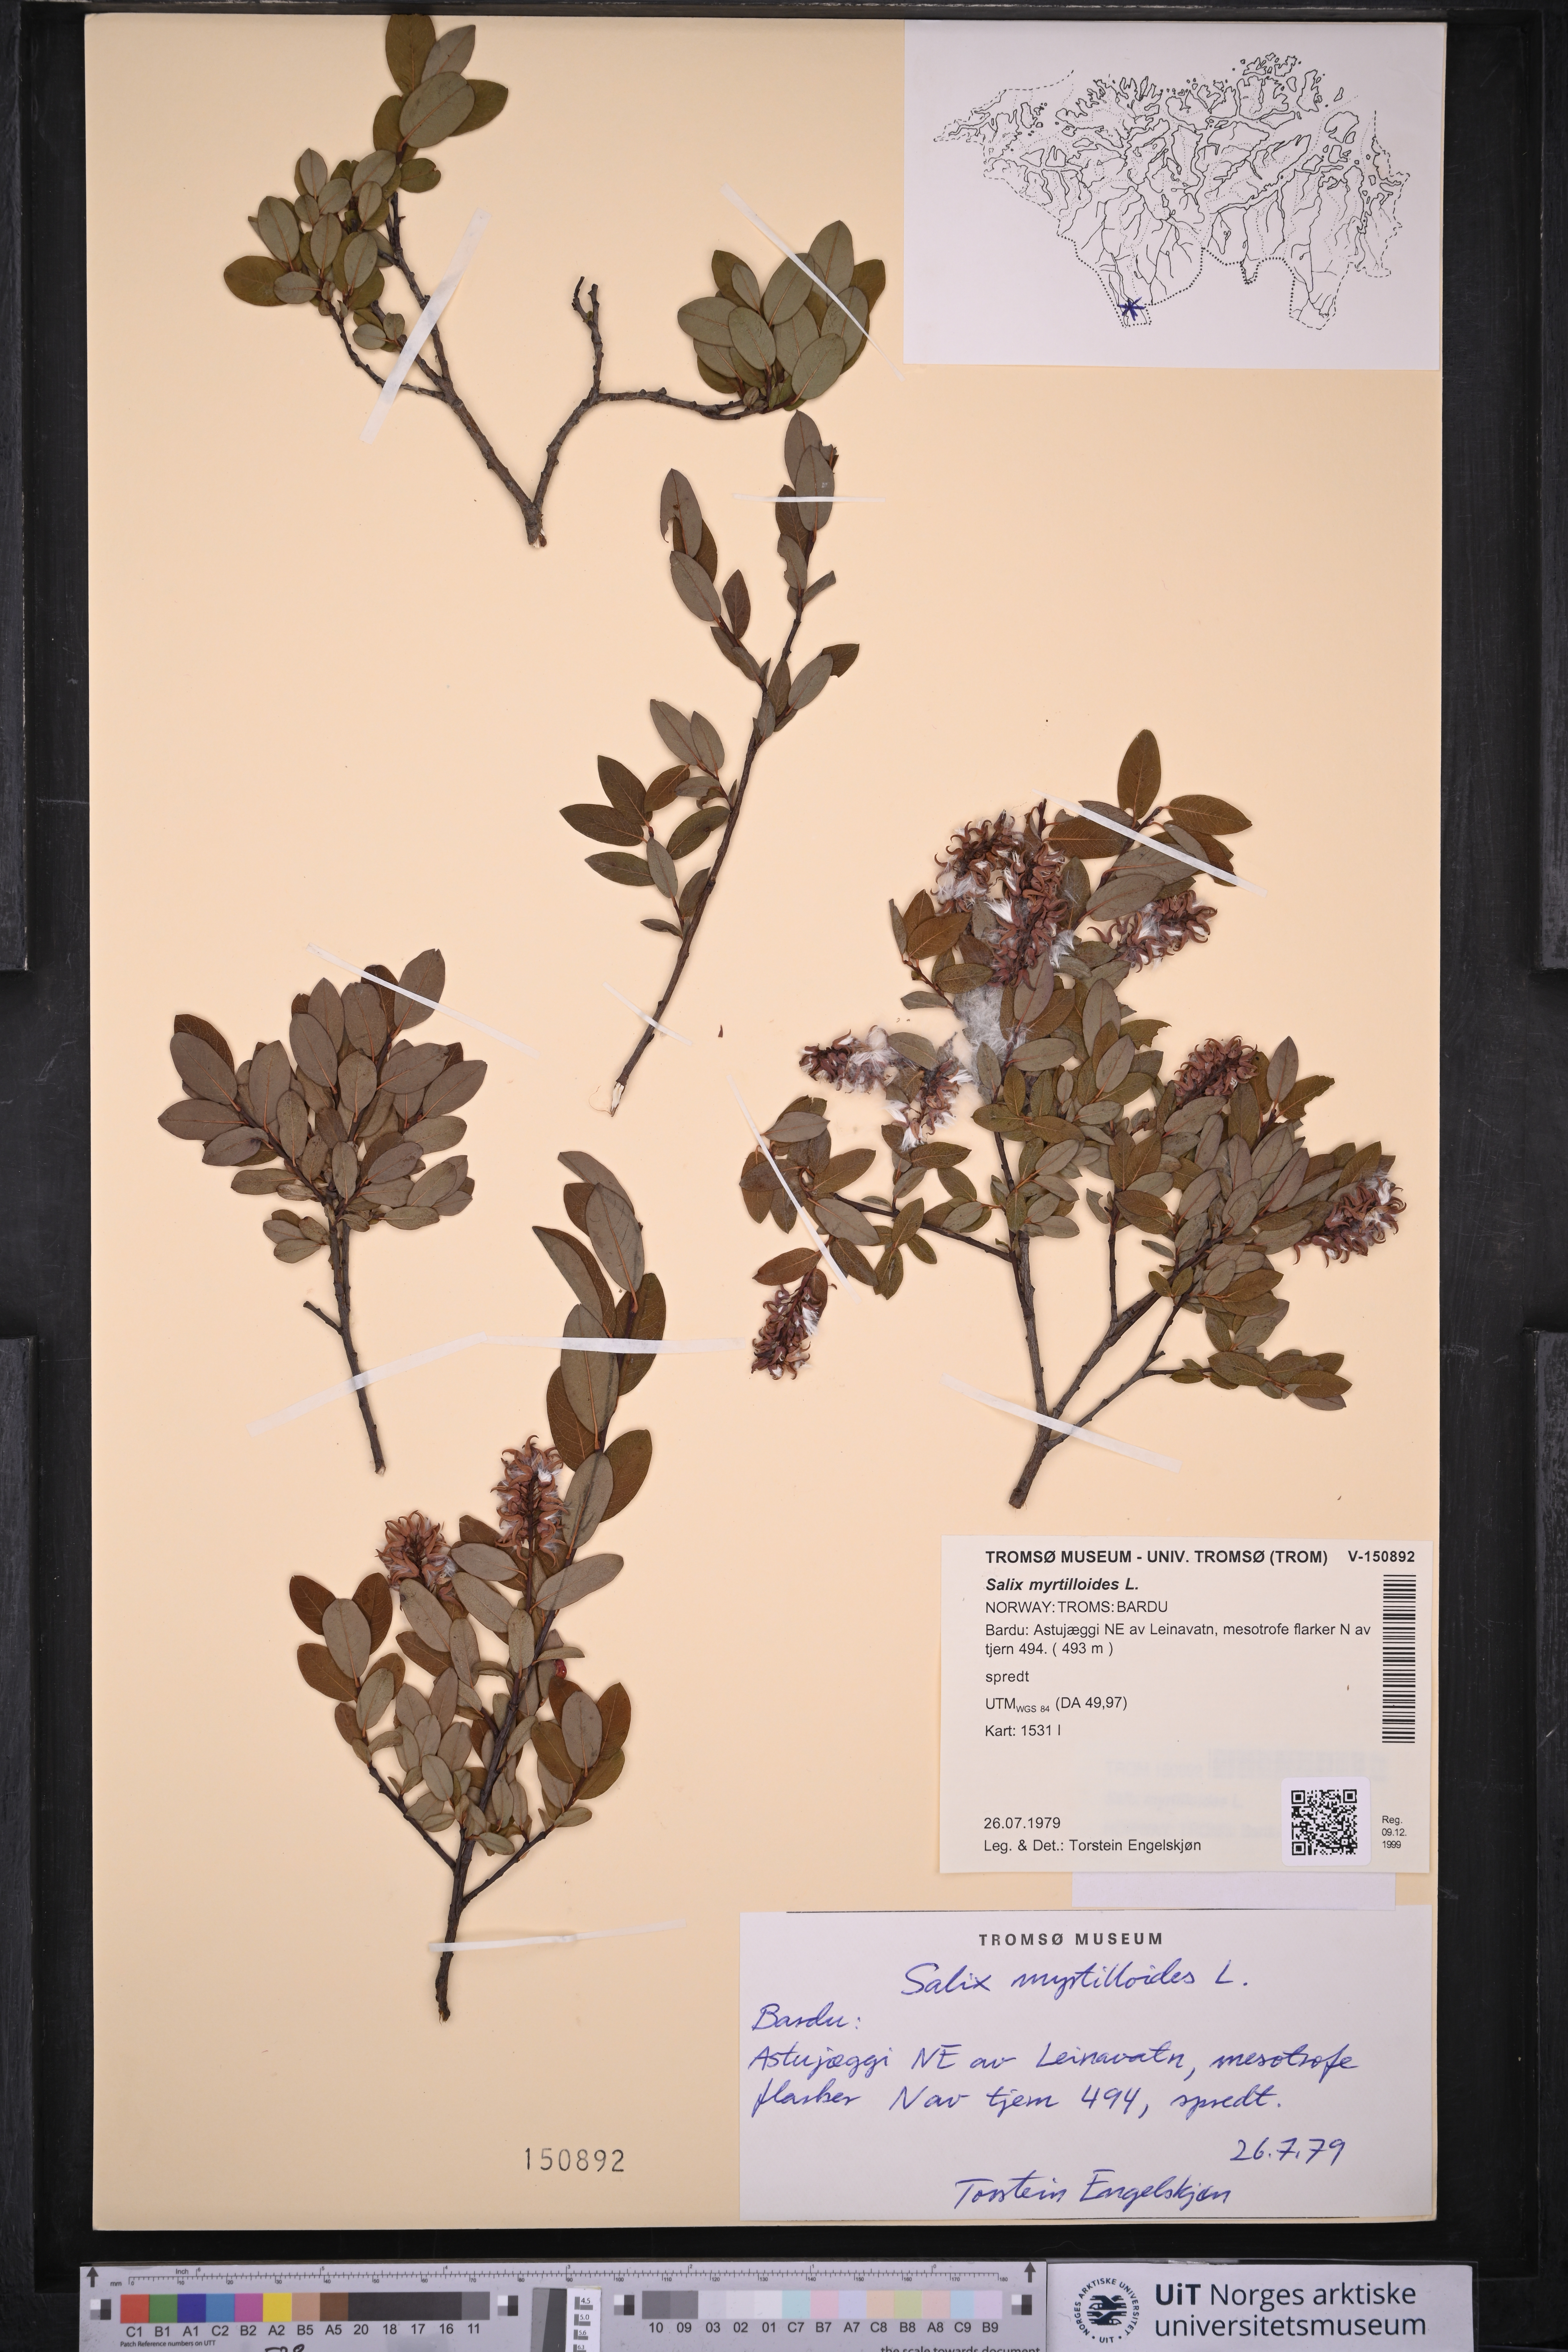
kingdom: Plantae
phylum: Tracheophyta
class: Magnoliopsida
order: Malpighiales
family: Salicaceae
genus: Salix
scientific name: Salix myrtilloides
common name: Myrtle-leaved willow
